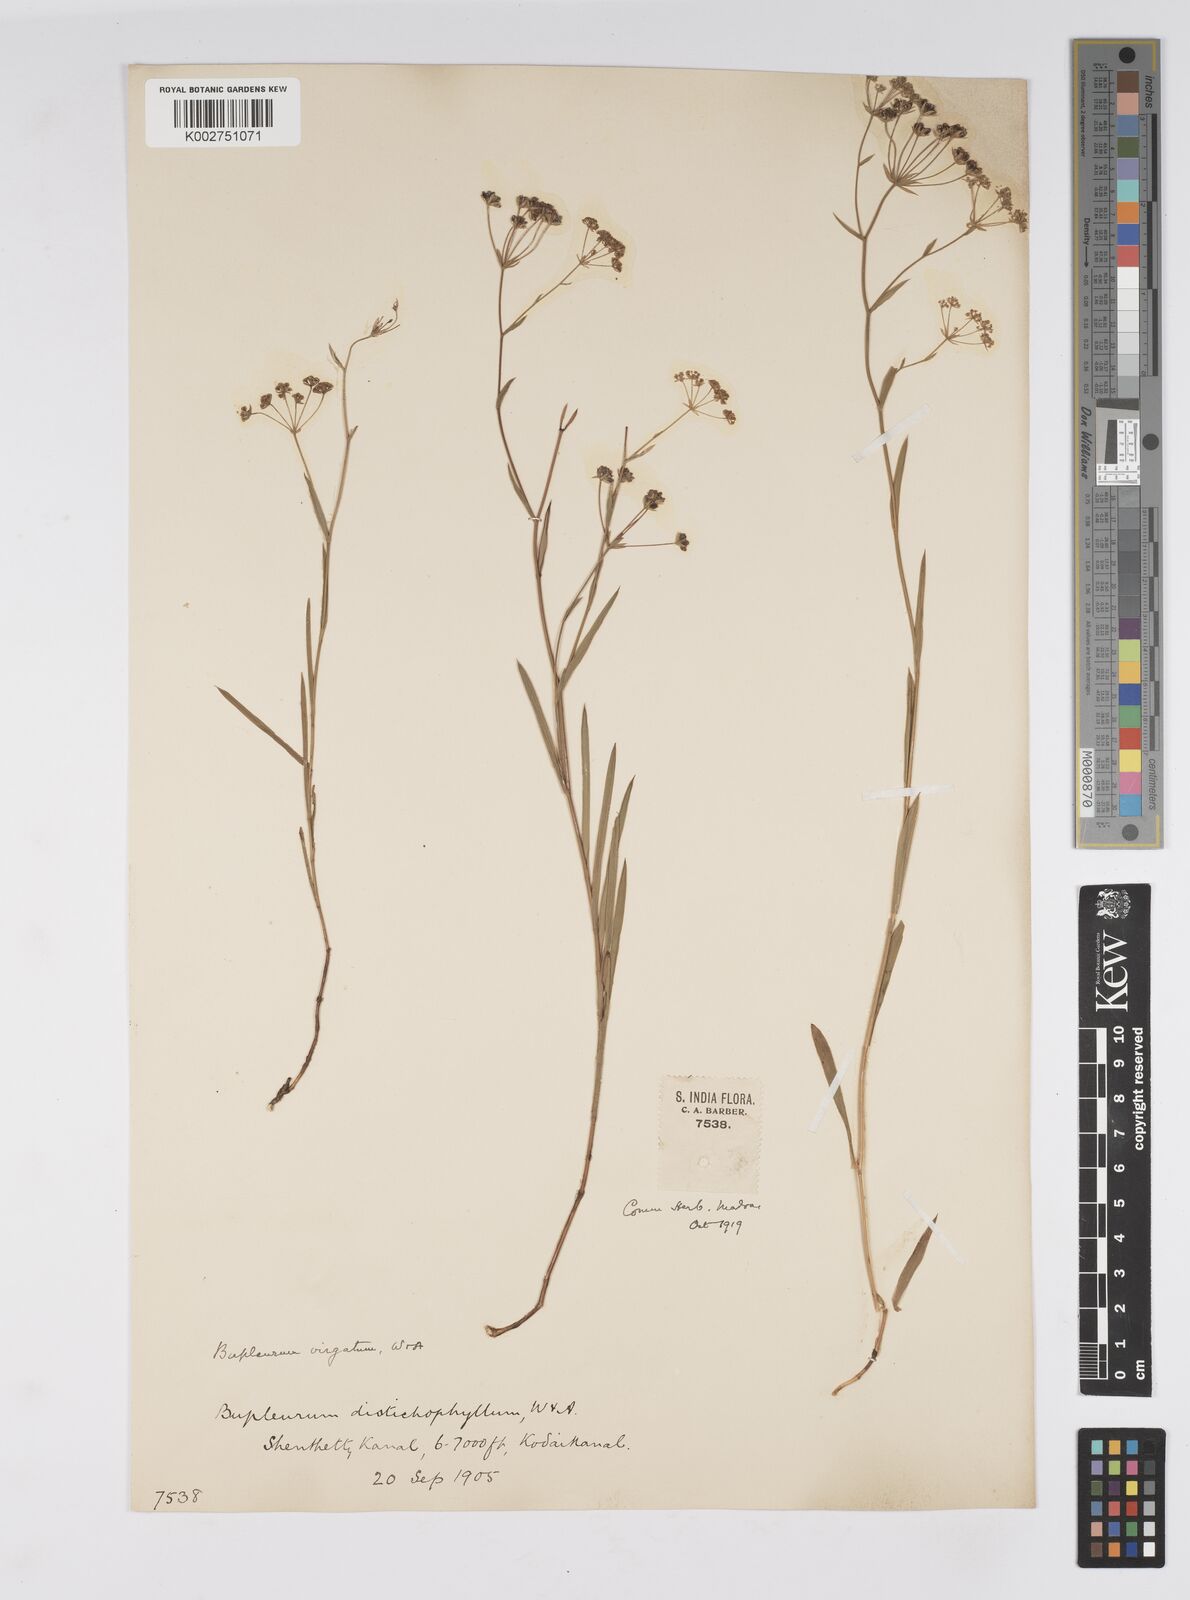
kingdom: Plantae
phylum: Tracheophyta
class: Magnoliopsida
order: Apiales
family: Apiaceae
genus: Bupleurum
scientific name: Bupleurum
